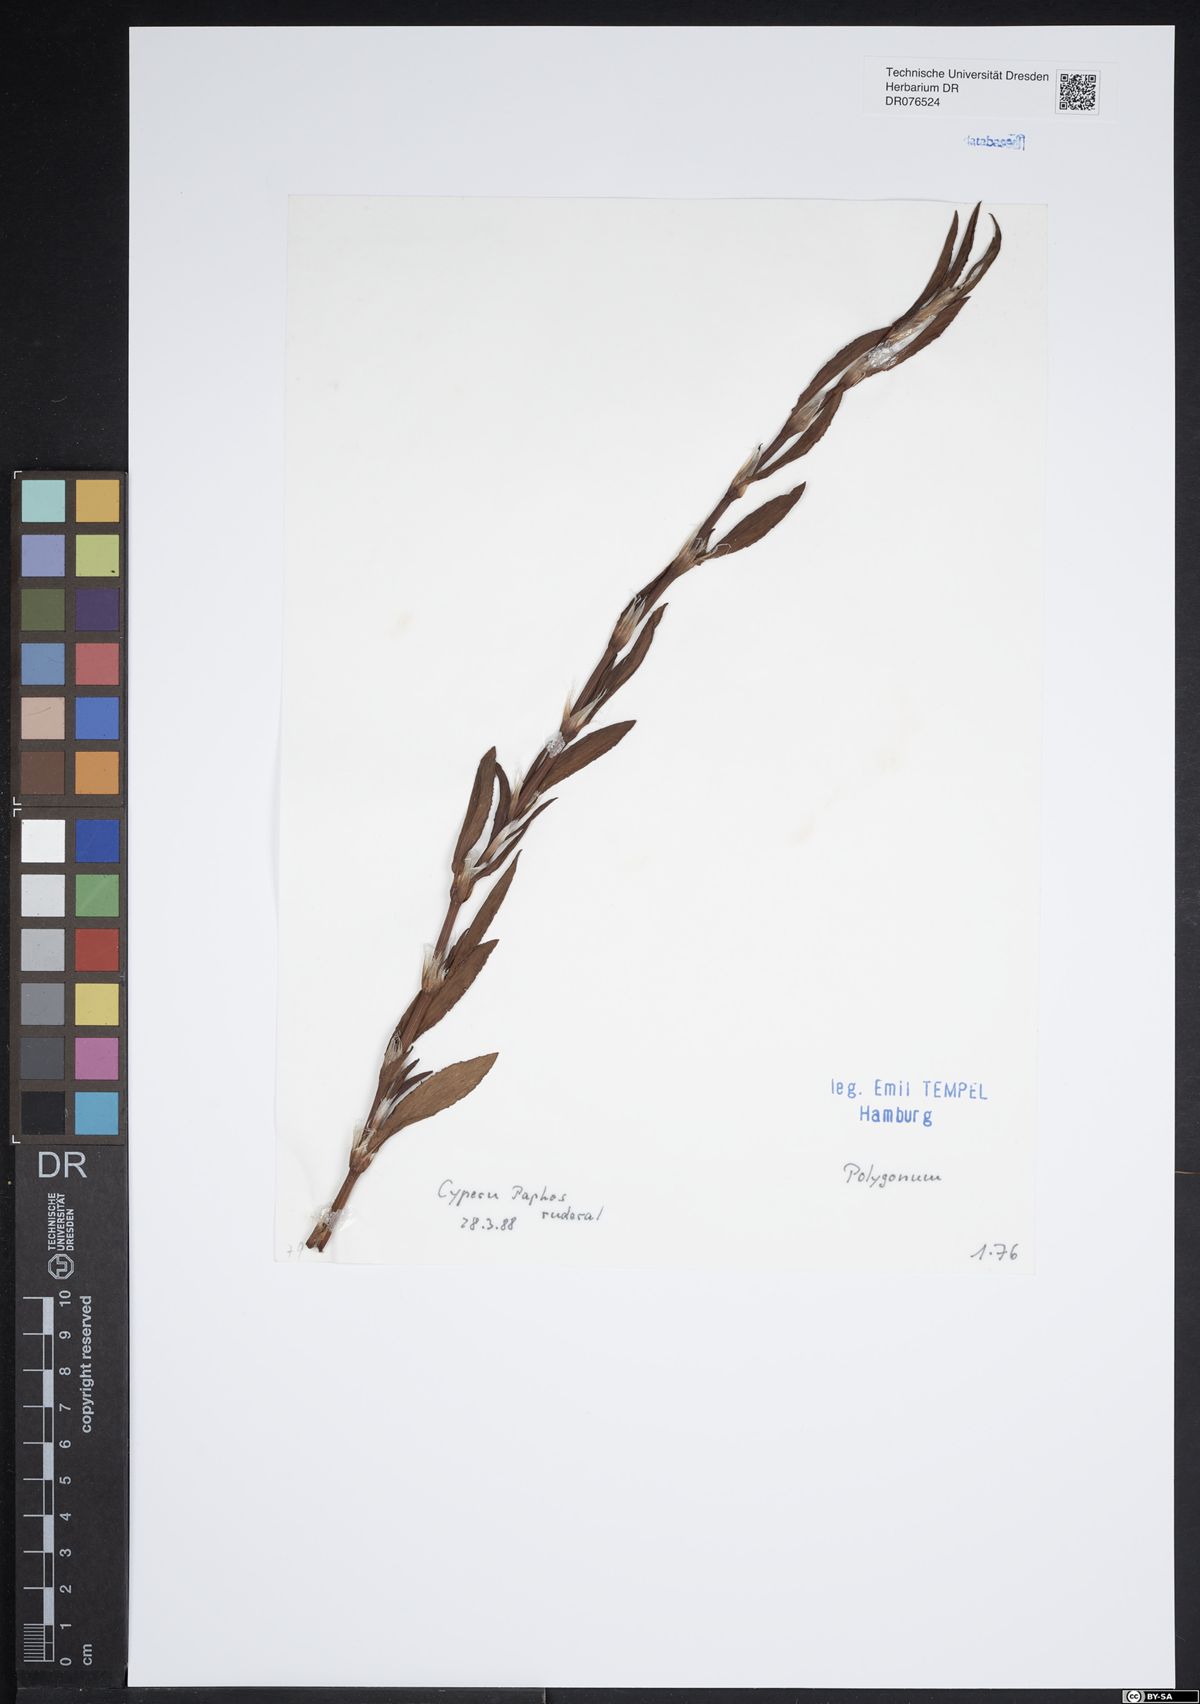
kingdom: Plantae
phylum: Tracheophyta
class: Magnoliopsida
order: Caryophyllales
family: Polygonaceae
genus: Polygonum
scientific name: Polygonum
